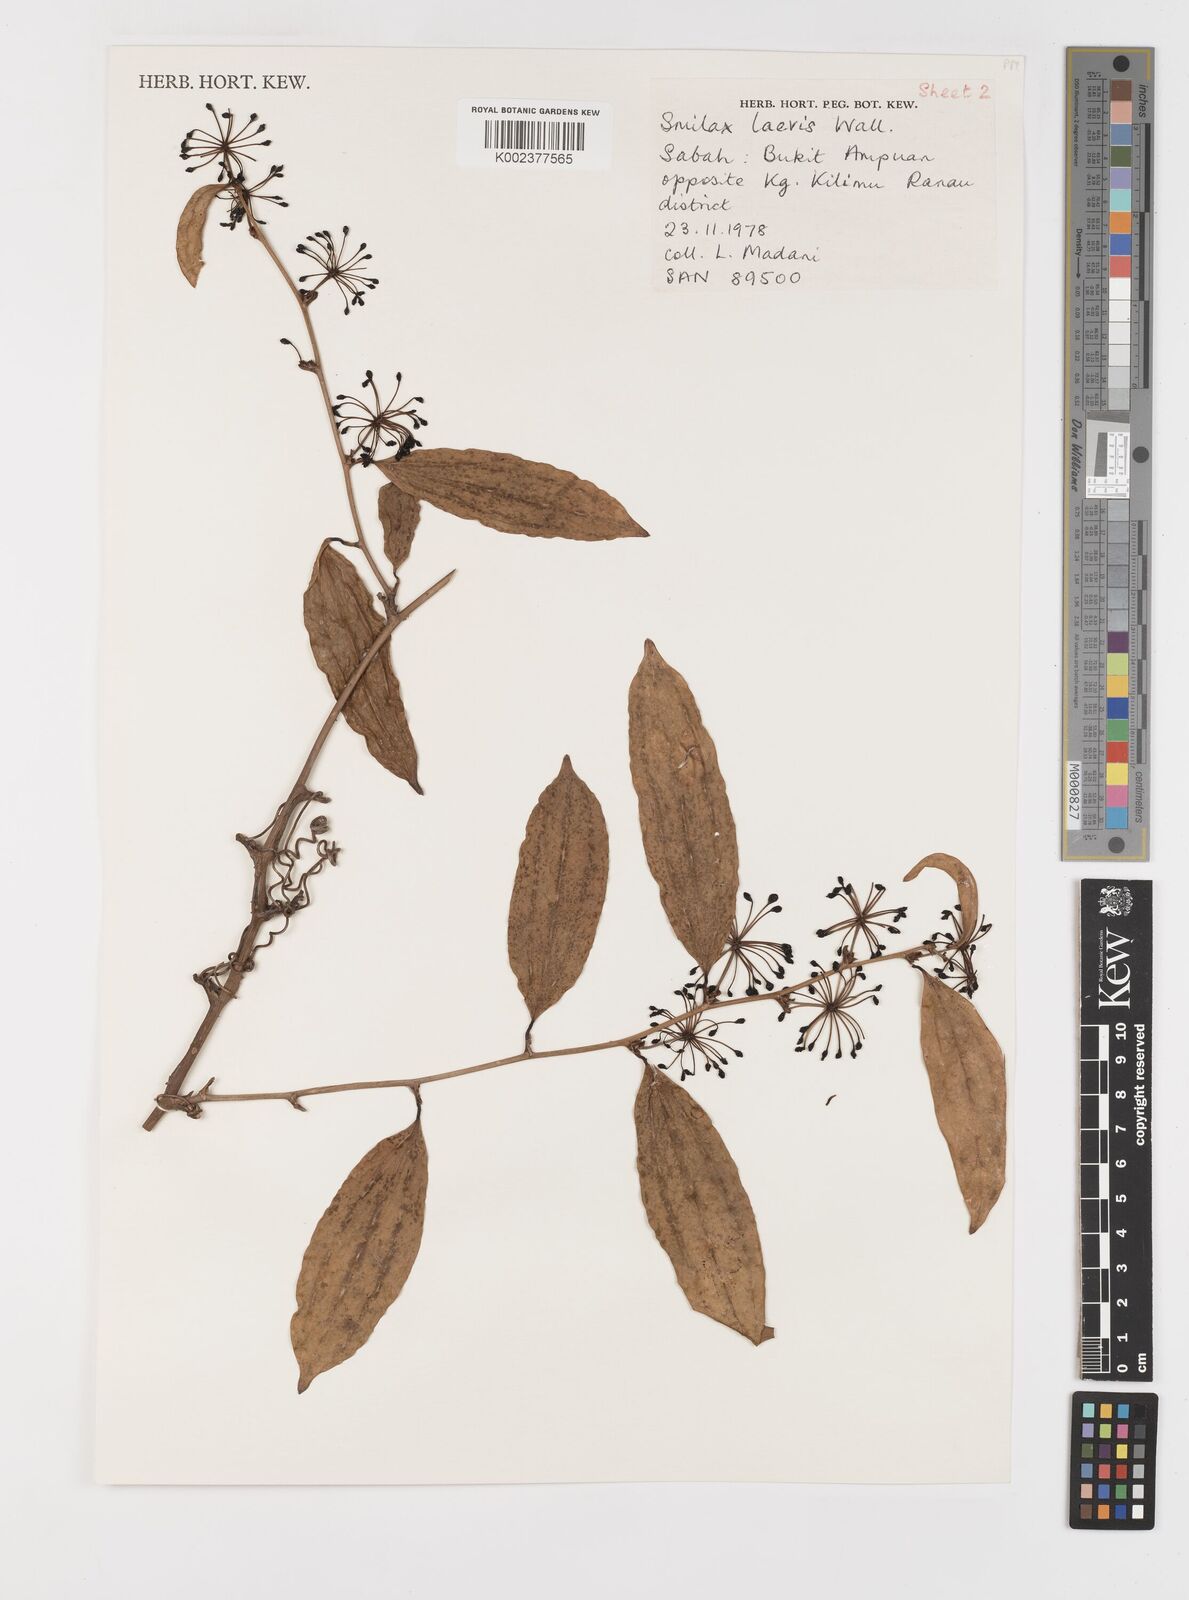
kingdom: Plantae
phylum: Tracheophyta
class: Liliopsida
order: Liliales
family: Smilacaceae
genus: Smilax
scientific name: Smilax lanceifolia
